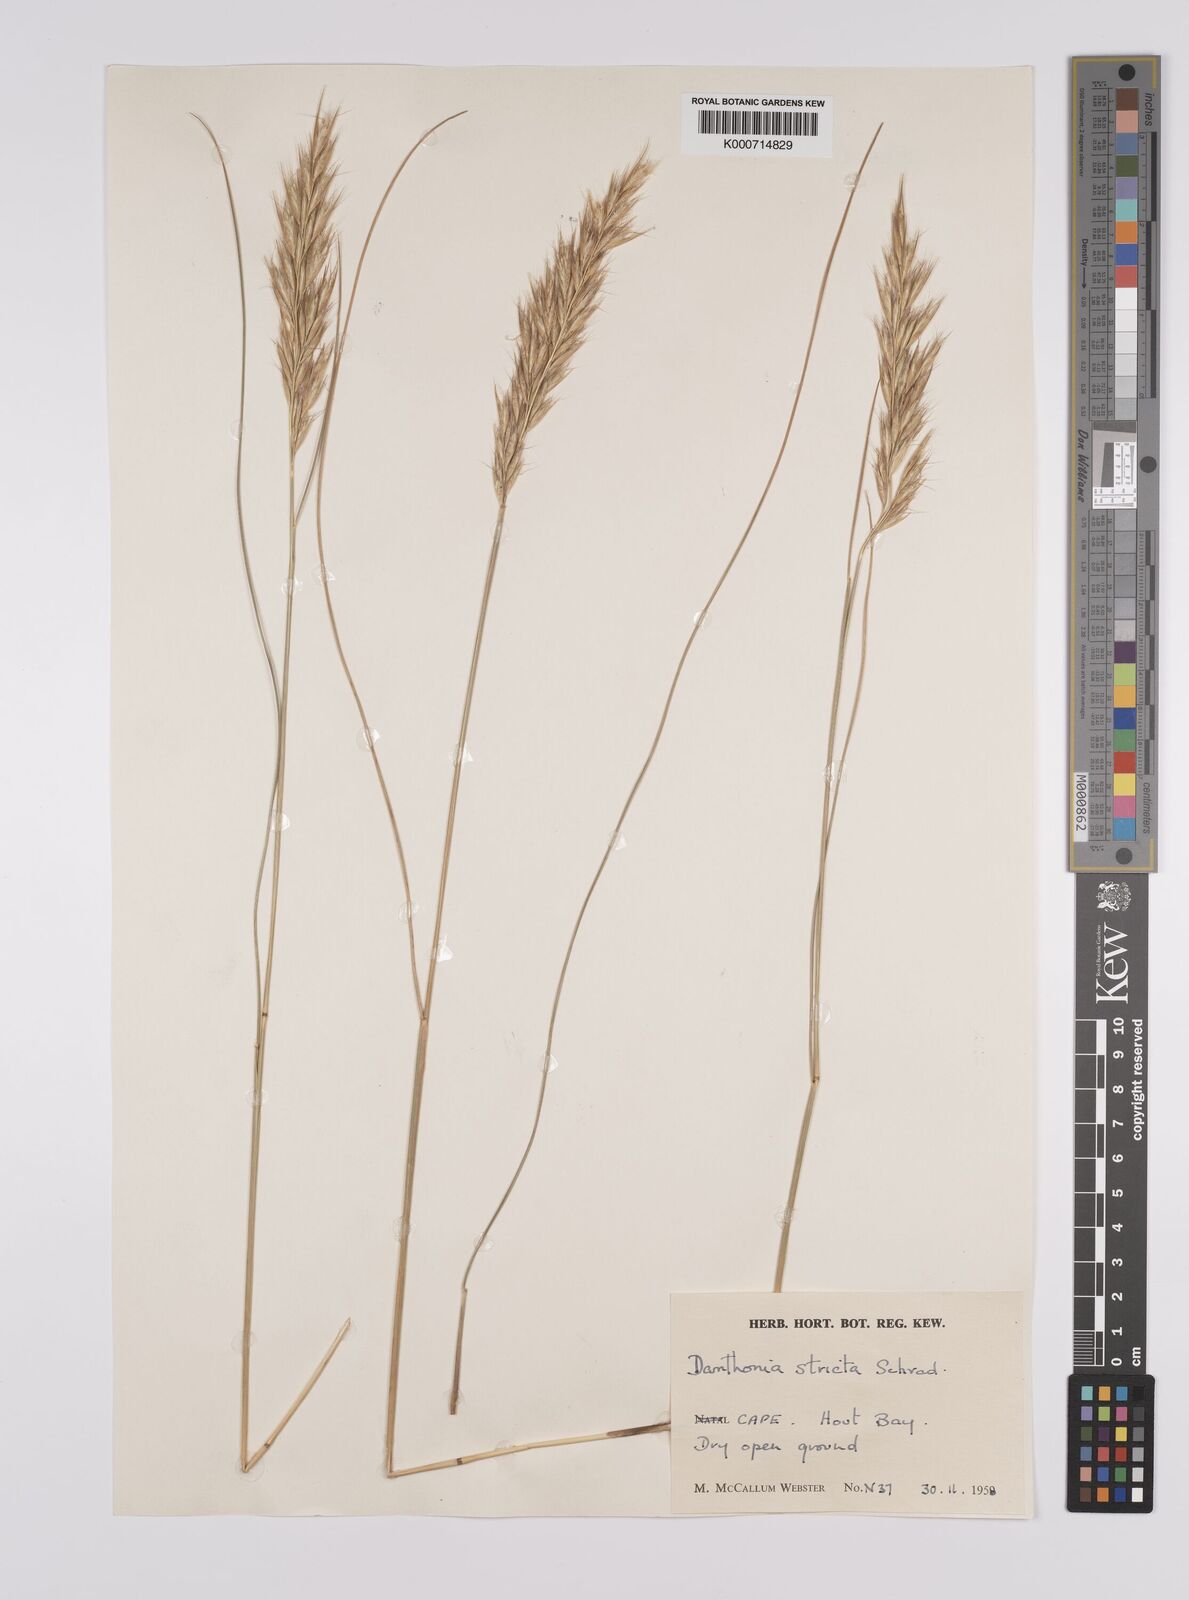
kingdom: Plantae
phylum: Tracheophyta
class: Liliopsida
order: Poales
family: Poaceae
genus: Rytidosperma
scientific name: Rytidosperma
